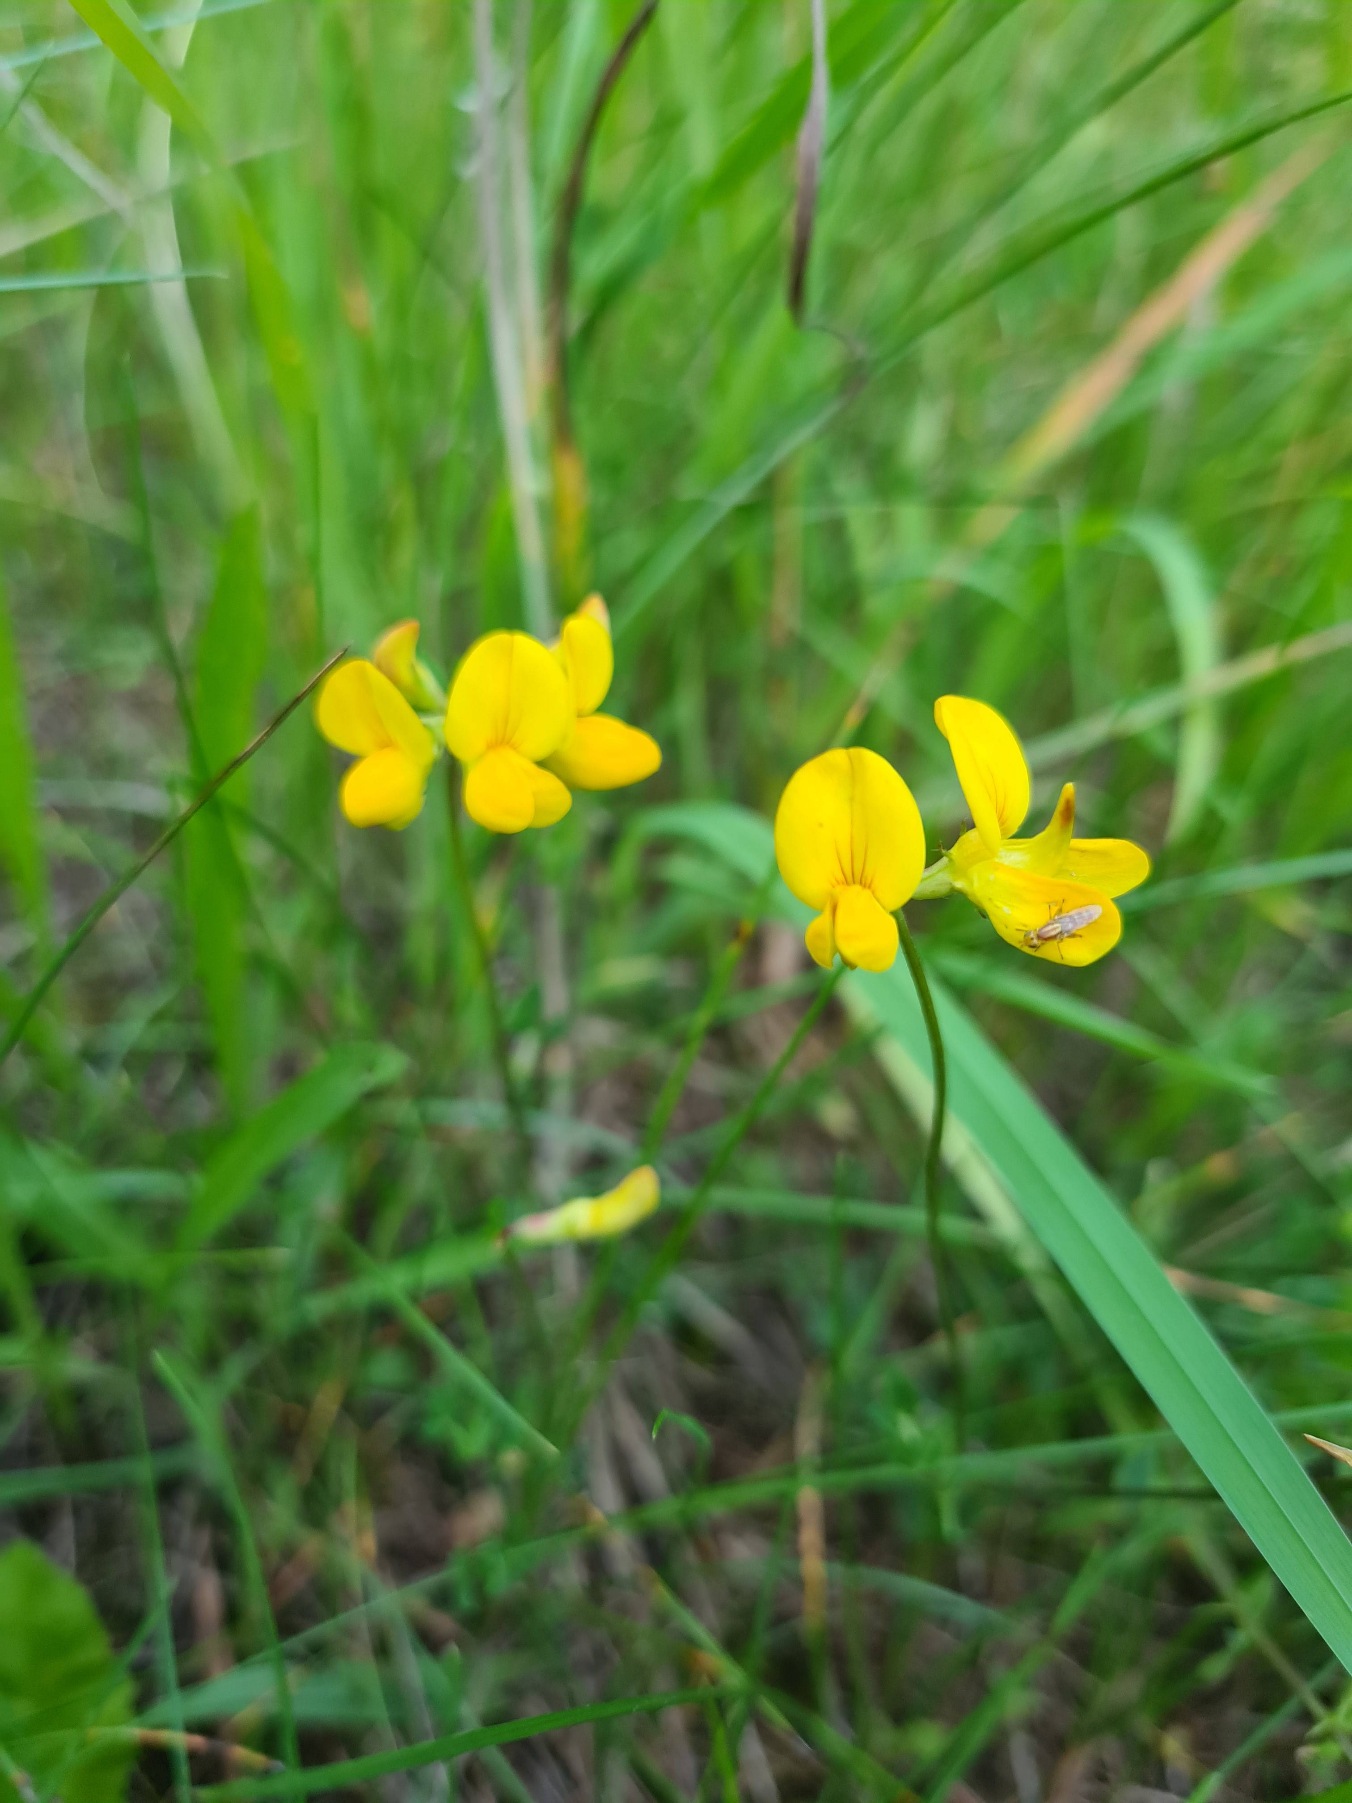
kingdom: Plantae
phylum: Tracheophyta
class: Magnoliopsida
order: Fabales
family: Fabaceae
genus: Lotus
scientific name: Lotus corniculatus
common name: Almindelig kællingetand
